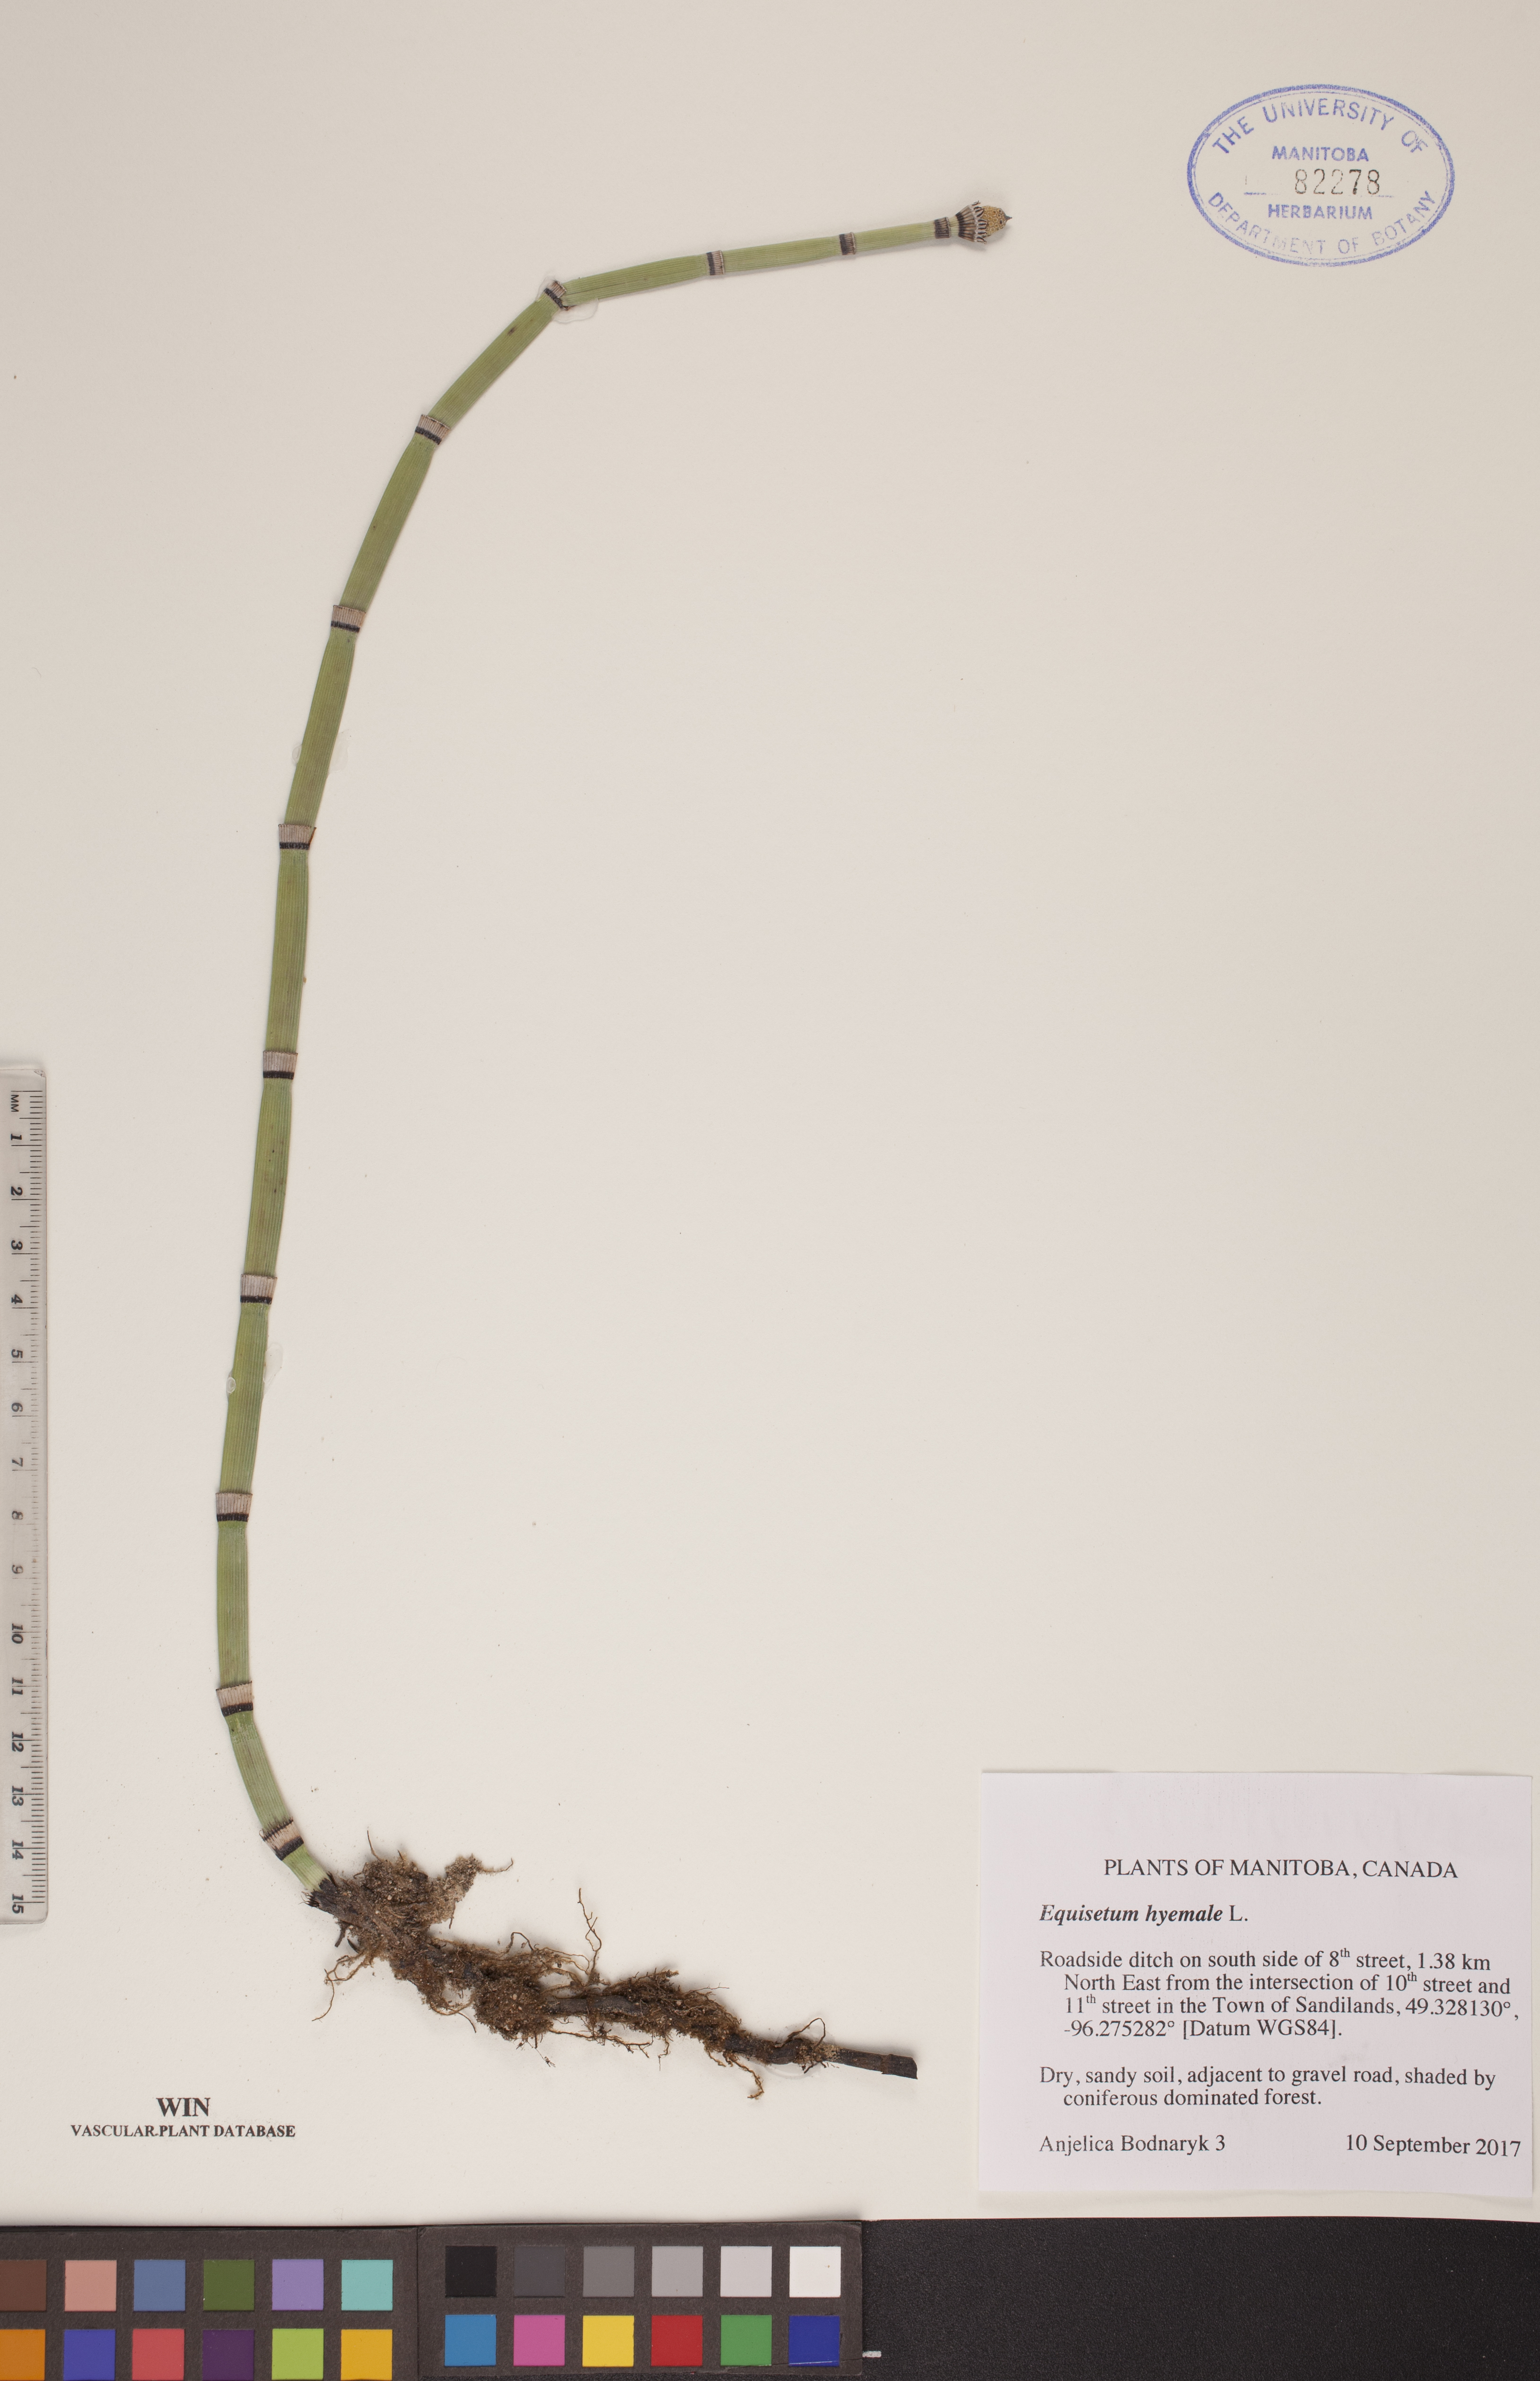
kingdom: Plantae
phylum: Tracheophyta
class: Polypodiopsida
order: Equisetales
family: Equisetaceae
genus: Equisetum
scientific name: Equisetum hyemale
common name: Rough horsetail
